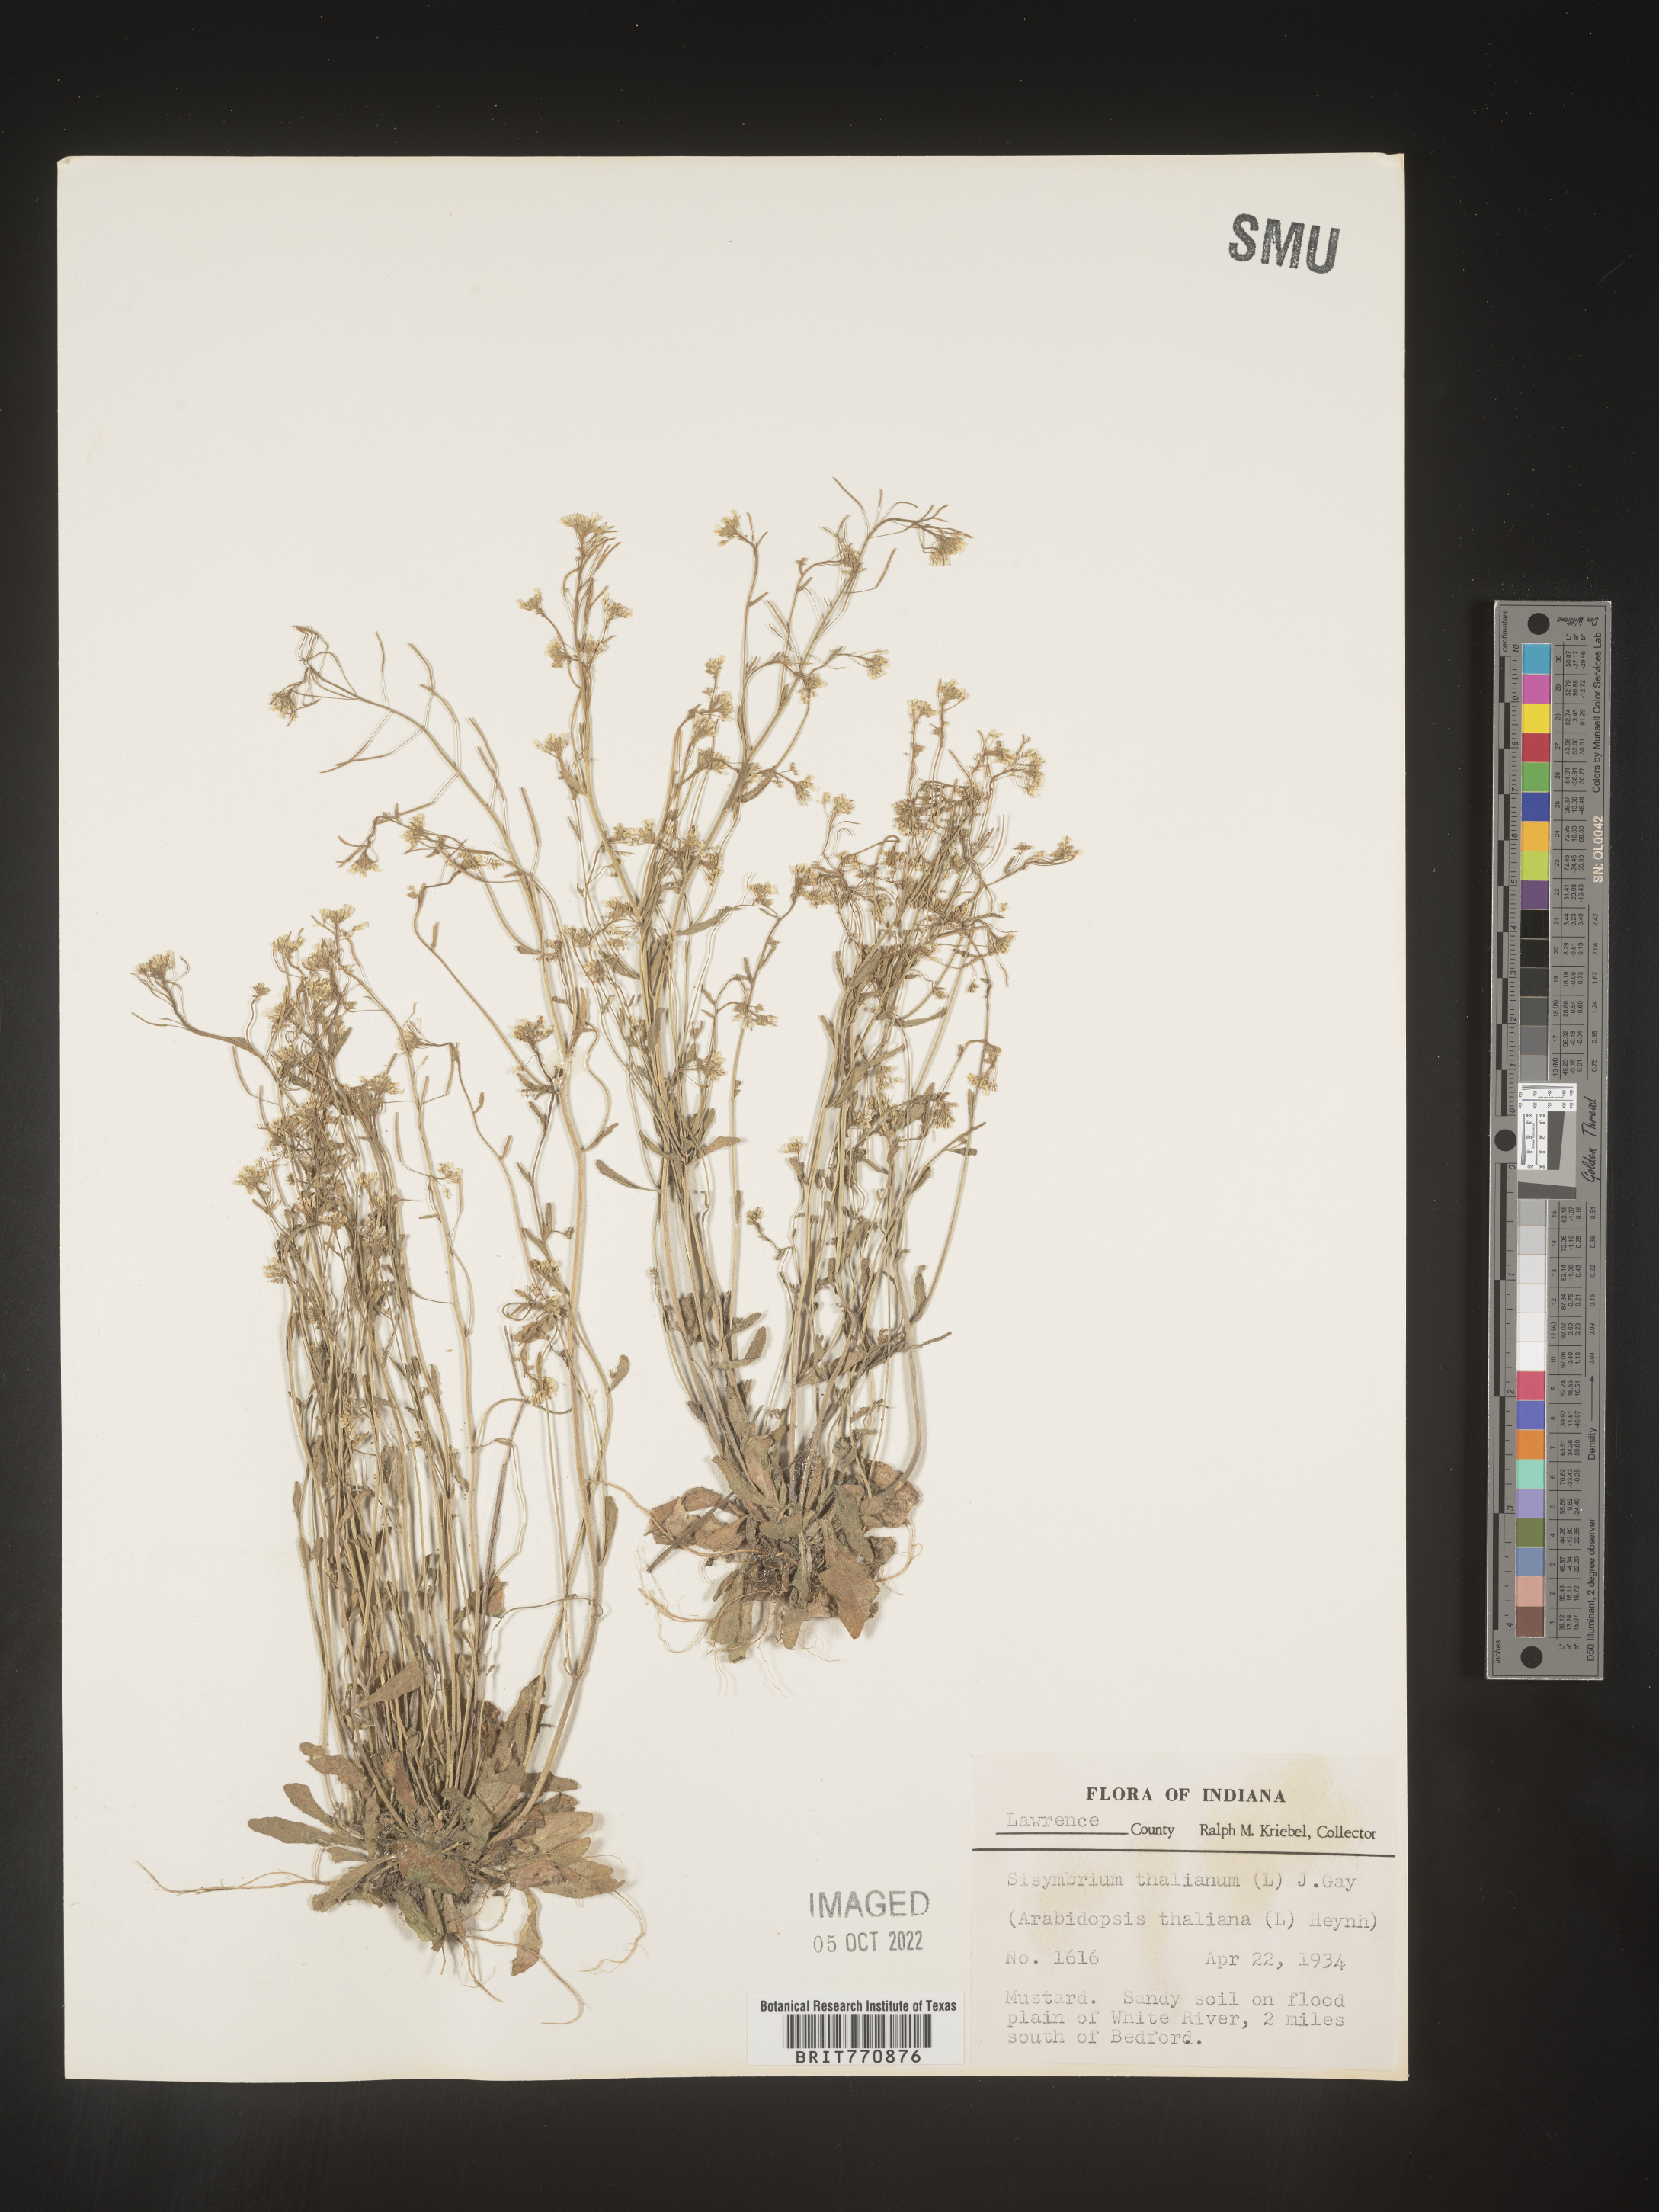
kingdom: Plantae
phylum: Tracheophyta
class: Magnoliopsida
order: Brassicales
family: Brassicaceae
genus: Arabidopsis
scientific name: Arabidopsis thaliana
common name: Thale cress
